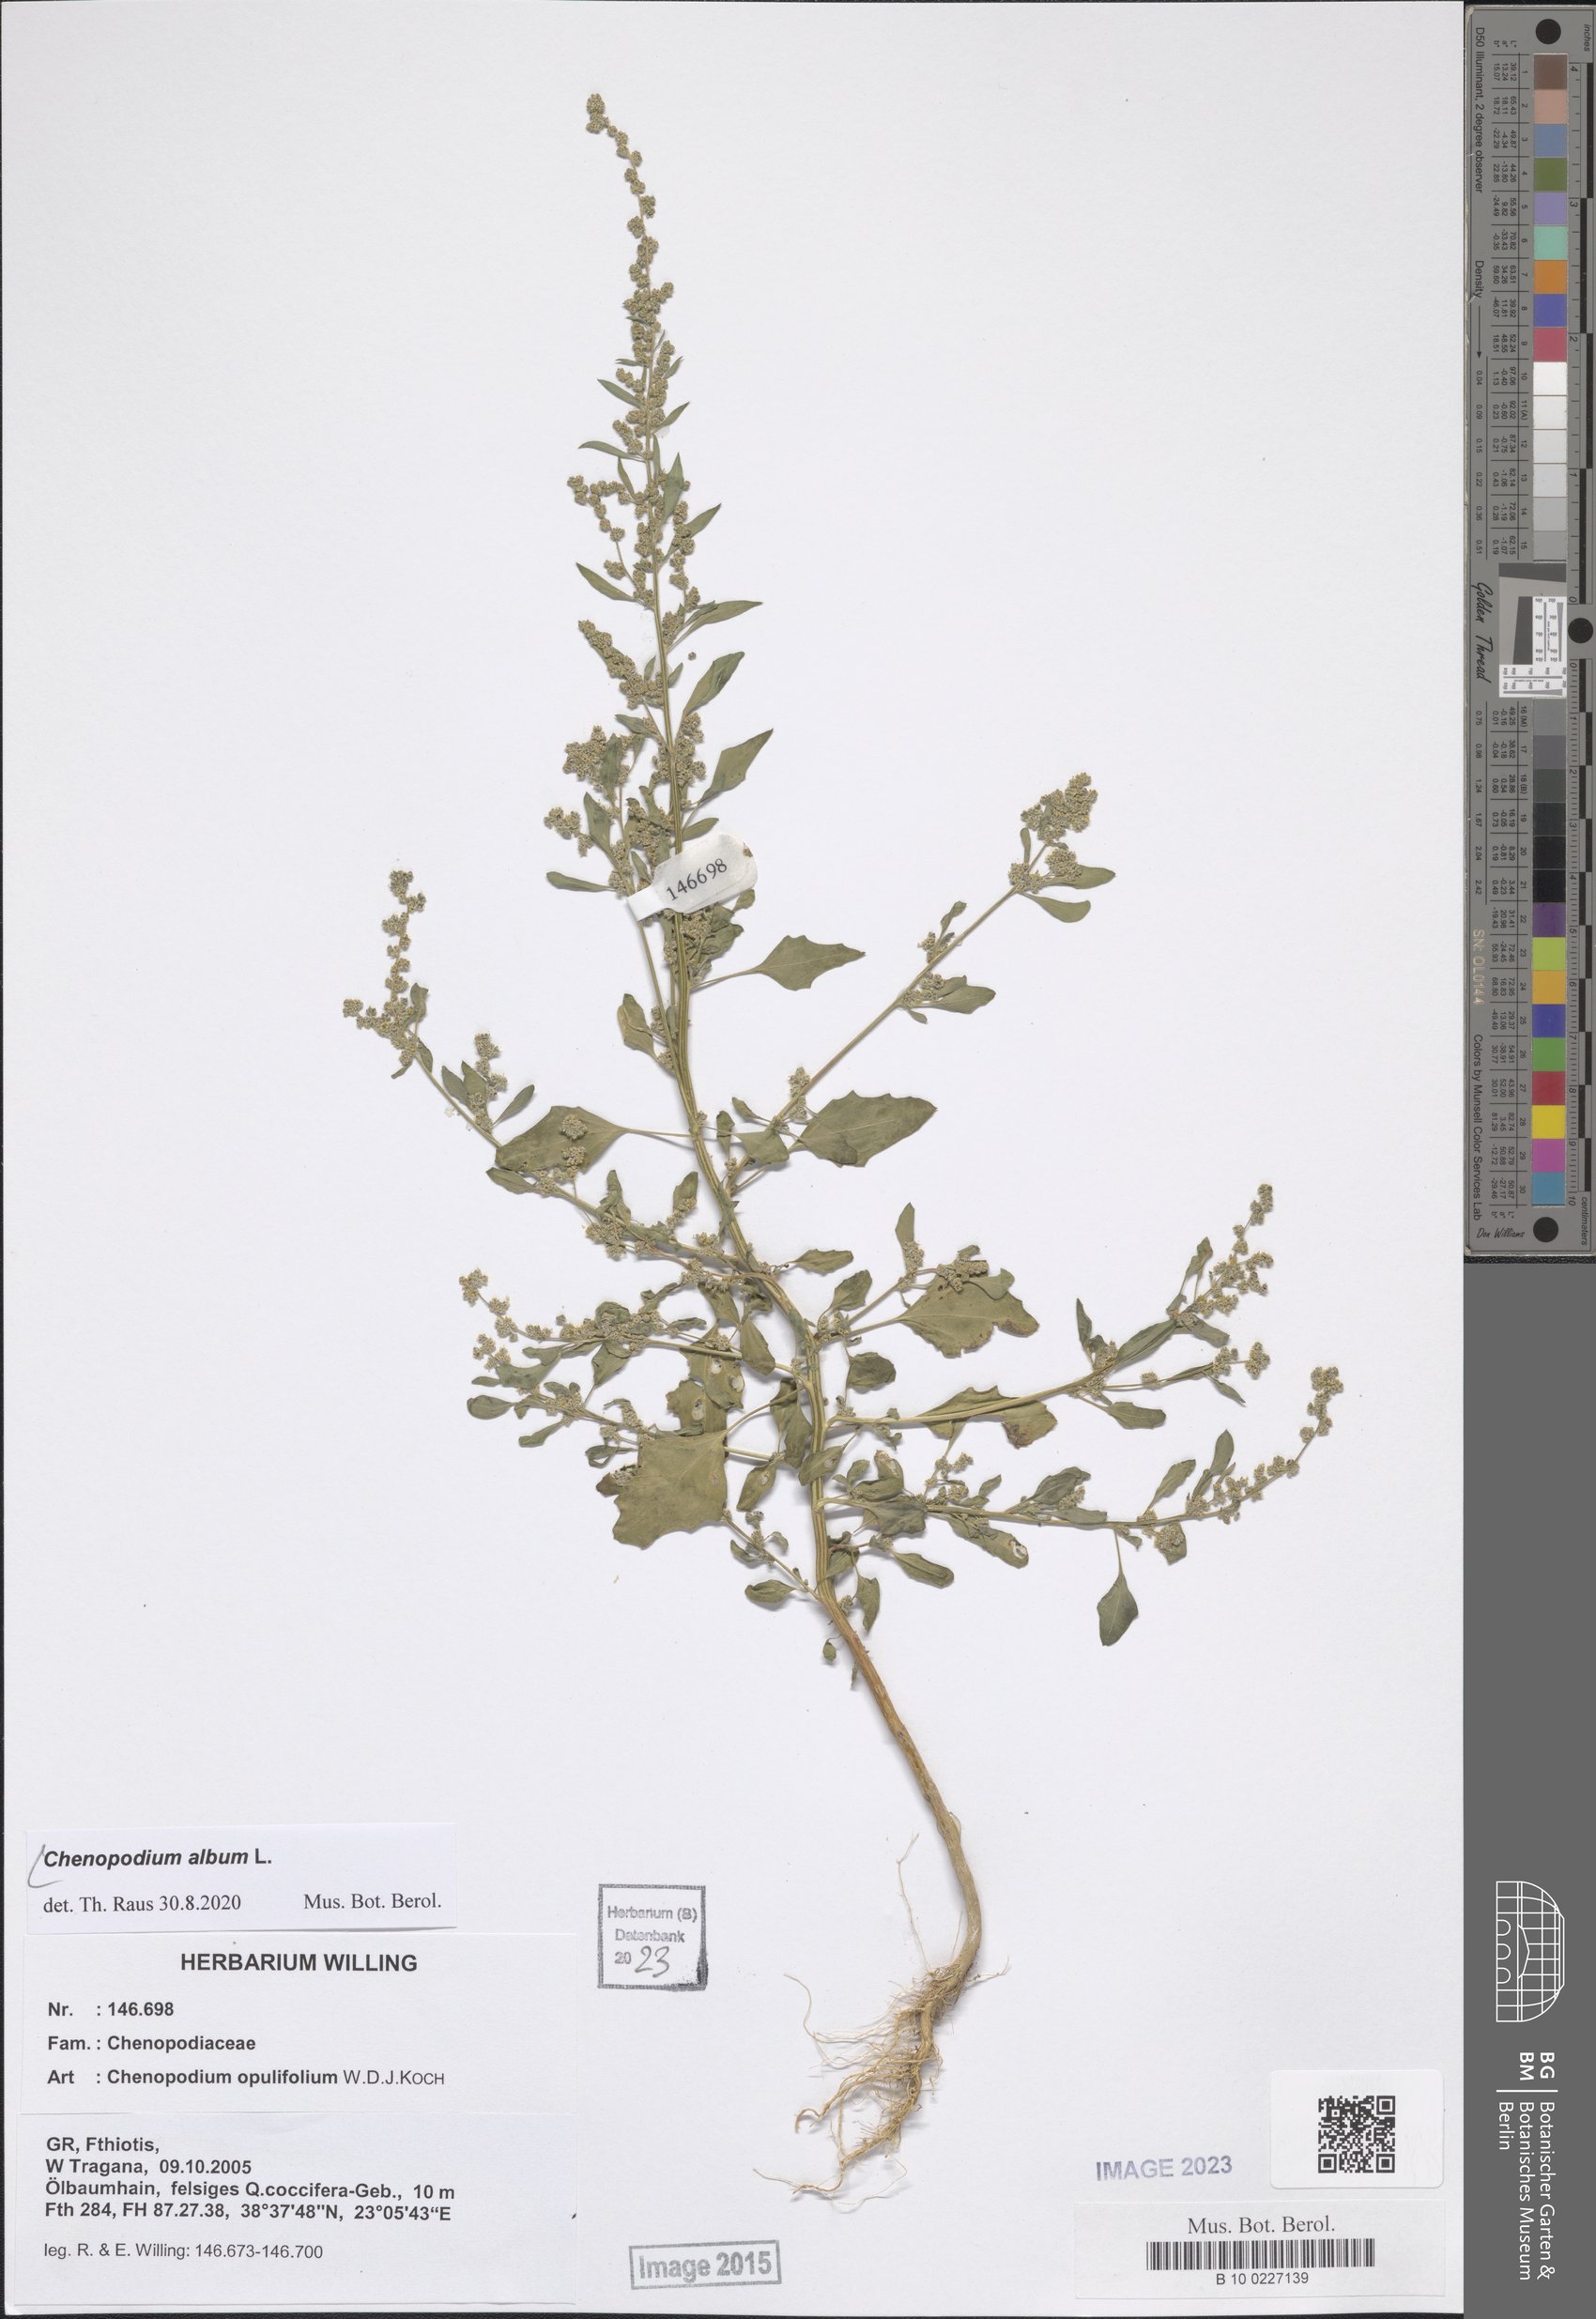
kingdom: Plantae
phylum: Tracheophyta
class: Magnoliopsida
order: Caryophyllales
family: Amaranthaceae
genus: Chenopodium
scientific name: Chenopodium album
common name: Fat-hen
